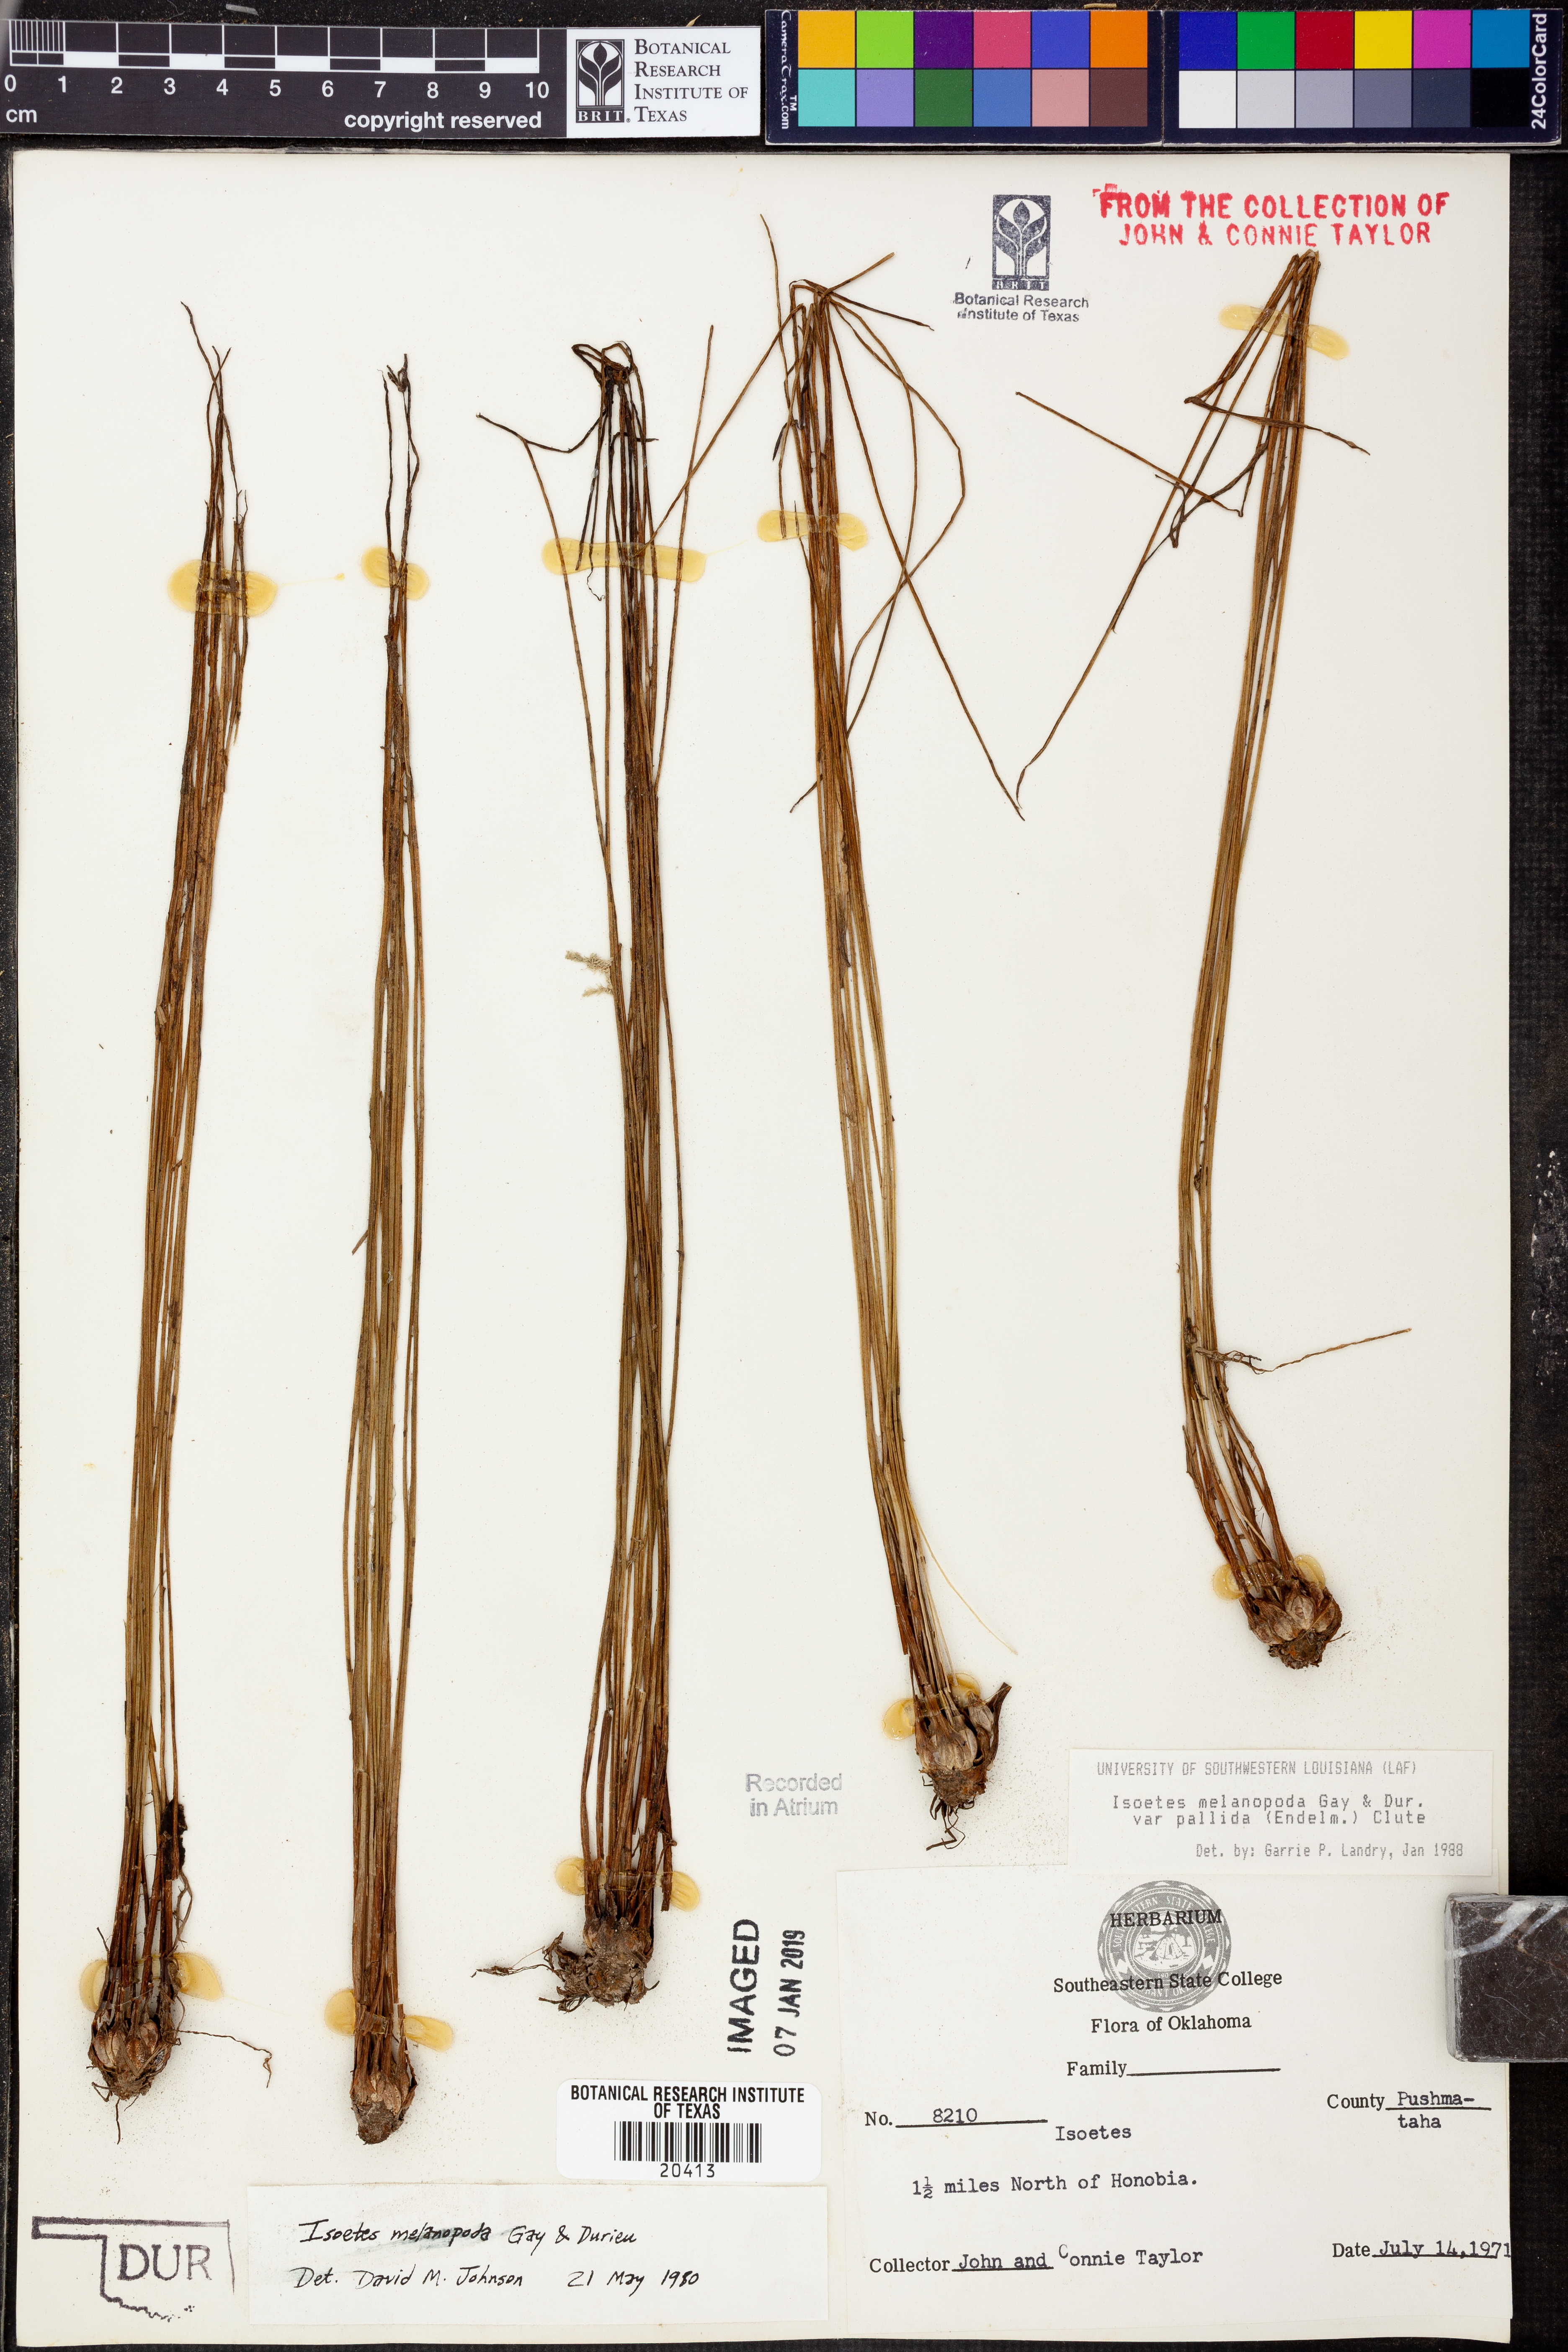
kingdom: Plantae
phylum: Tracheophyta
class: Lycopodiopsida
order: Isoetales
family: Isoetaceae
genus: Isoetes
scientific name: Isoetes melanopoda
